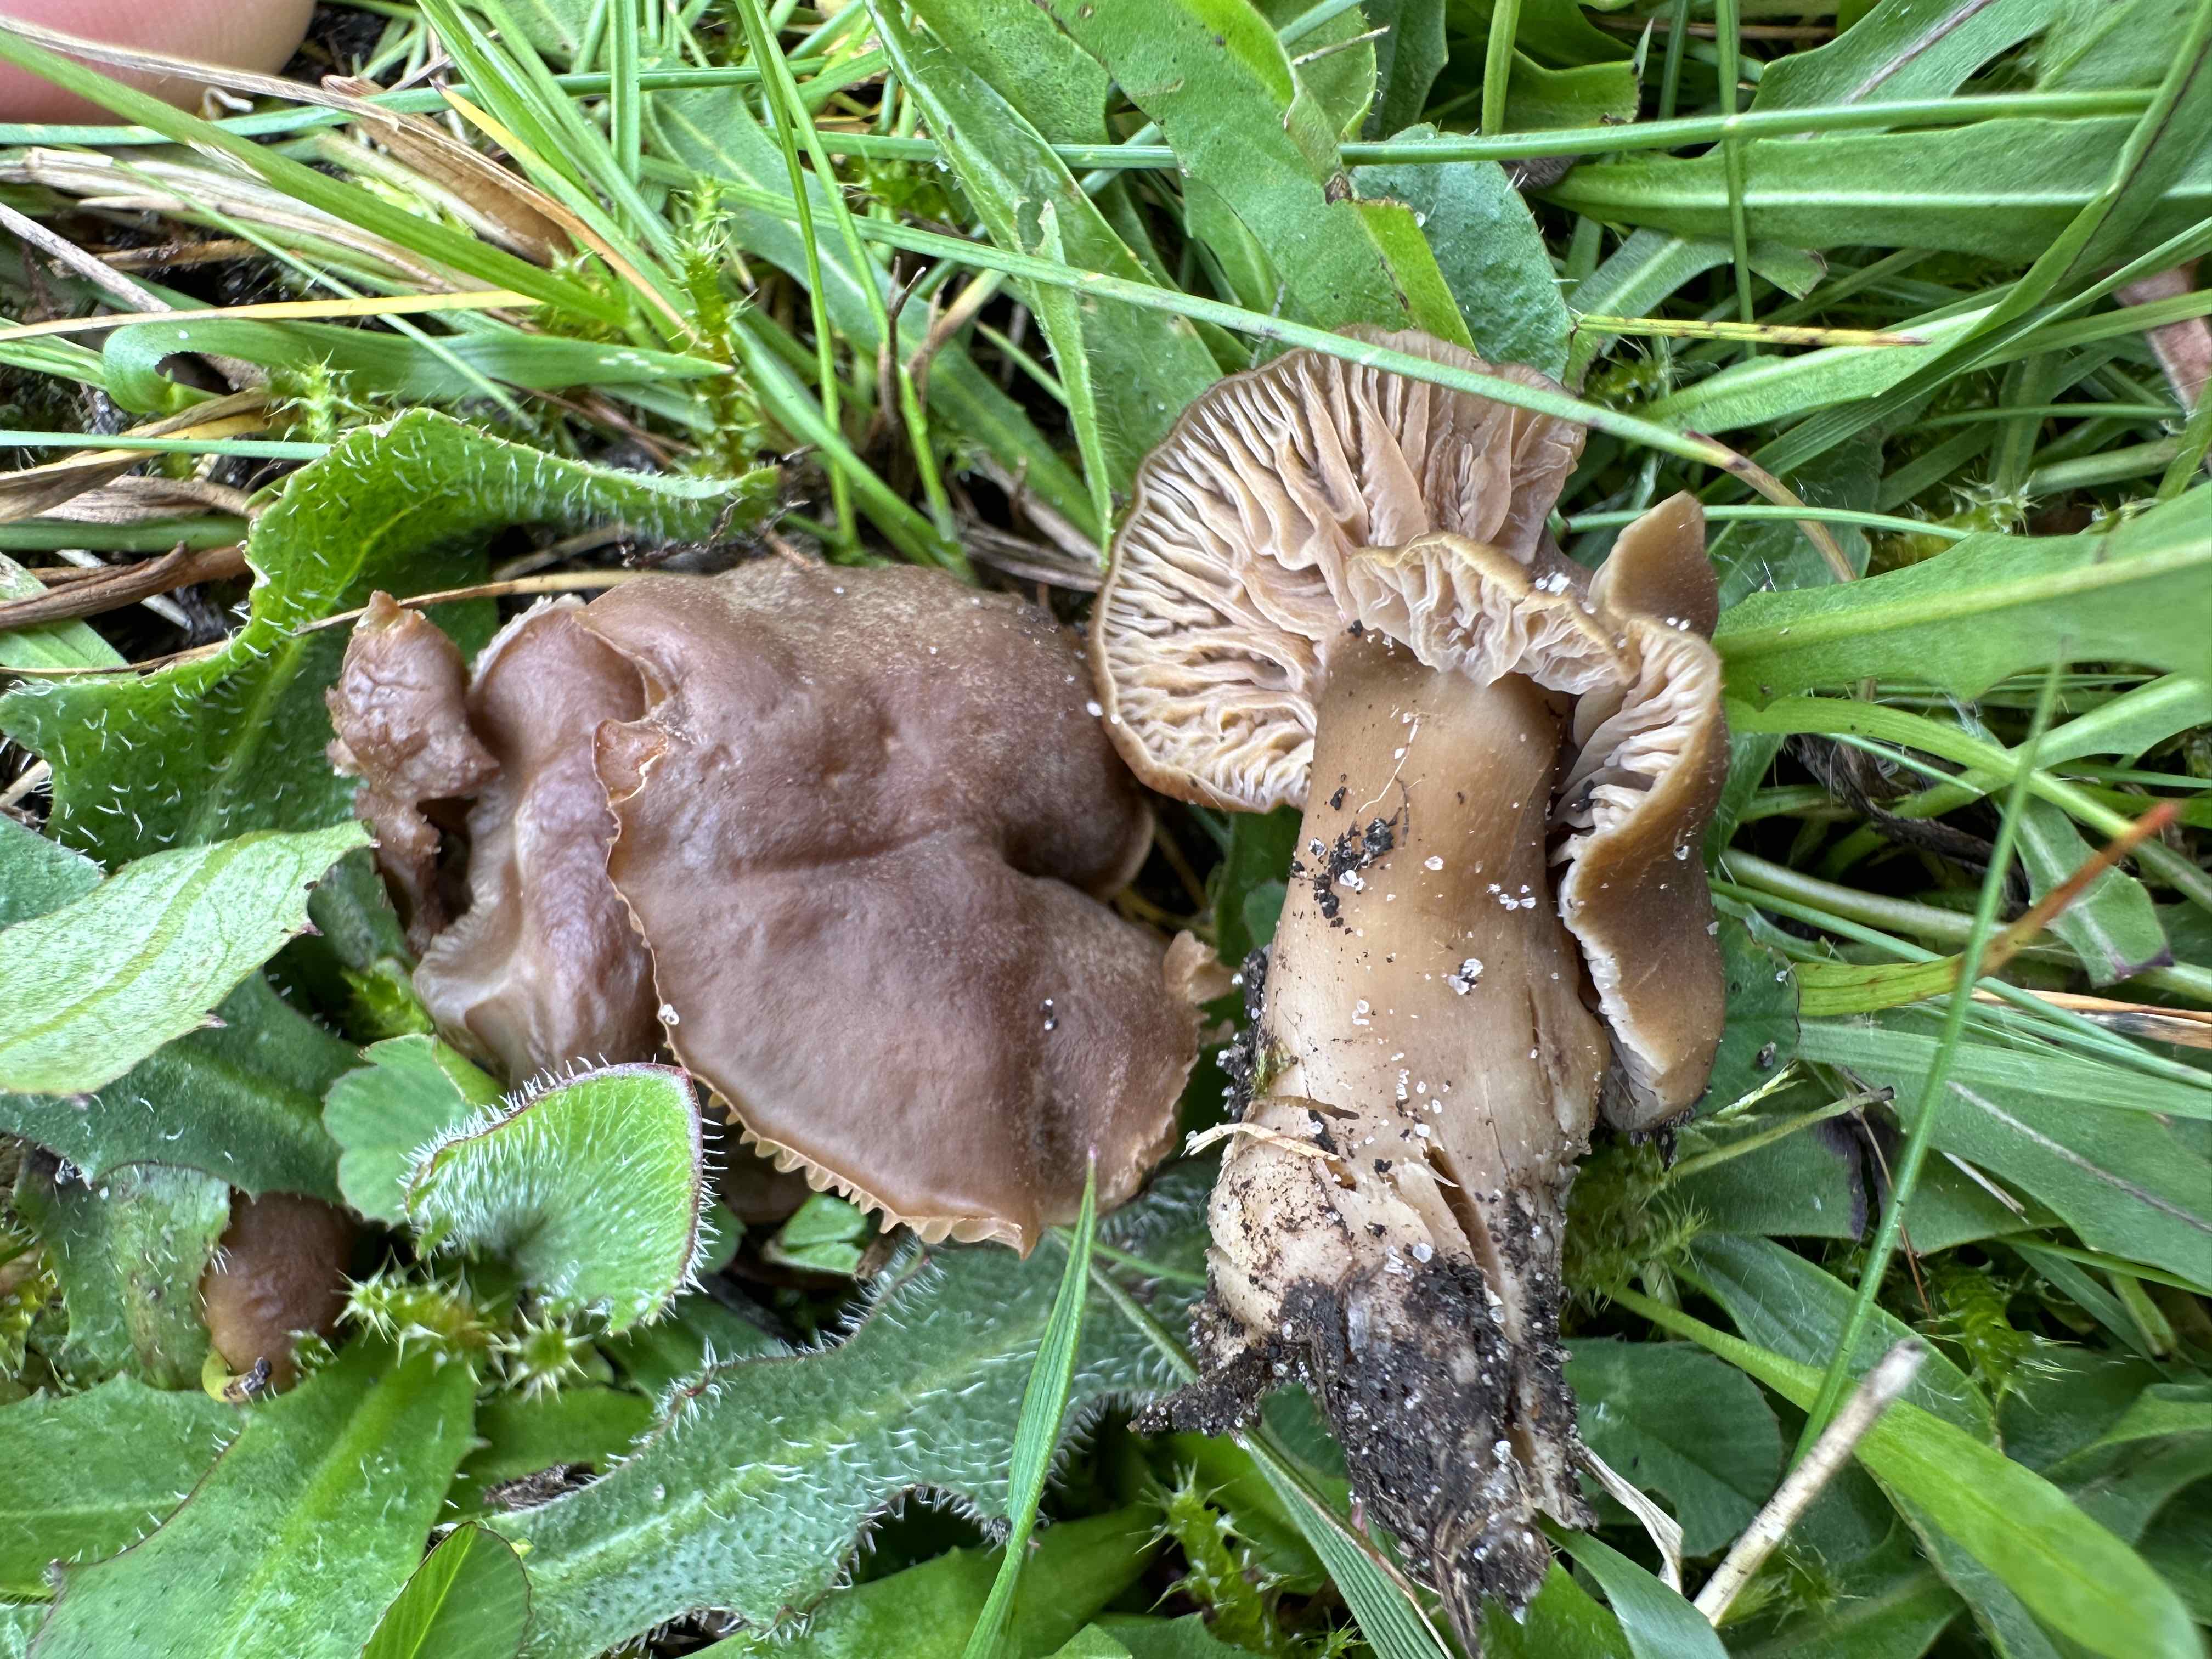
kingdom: Fungi
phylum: Basidiomycota
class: Agaricomycetes
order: Agaricales
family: Clavariaceae
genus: Camarophyllopsis
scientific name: Camarophyllopsis schulzeri
